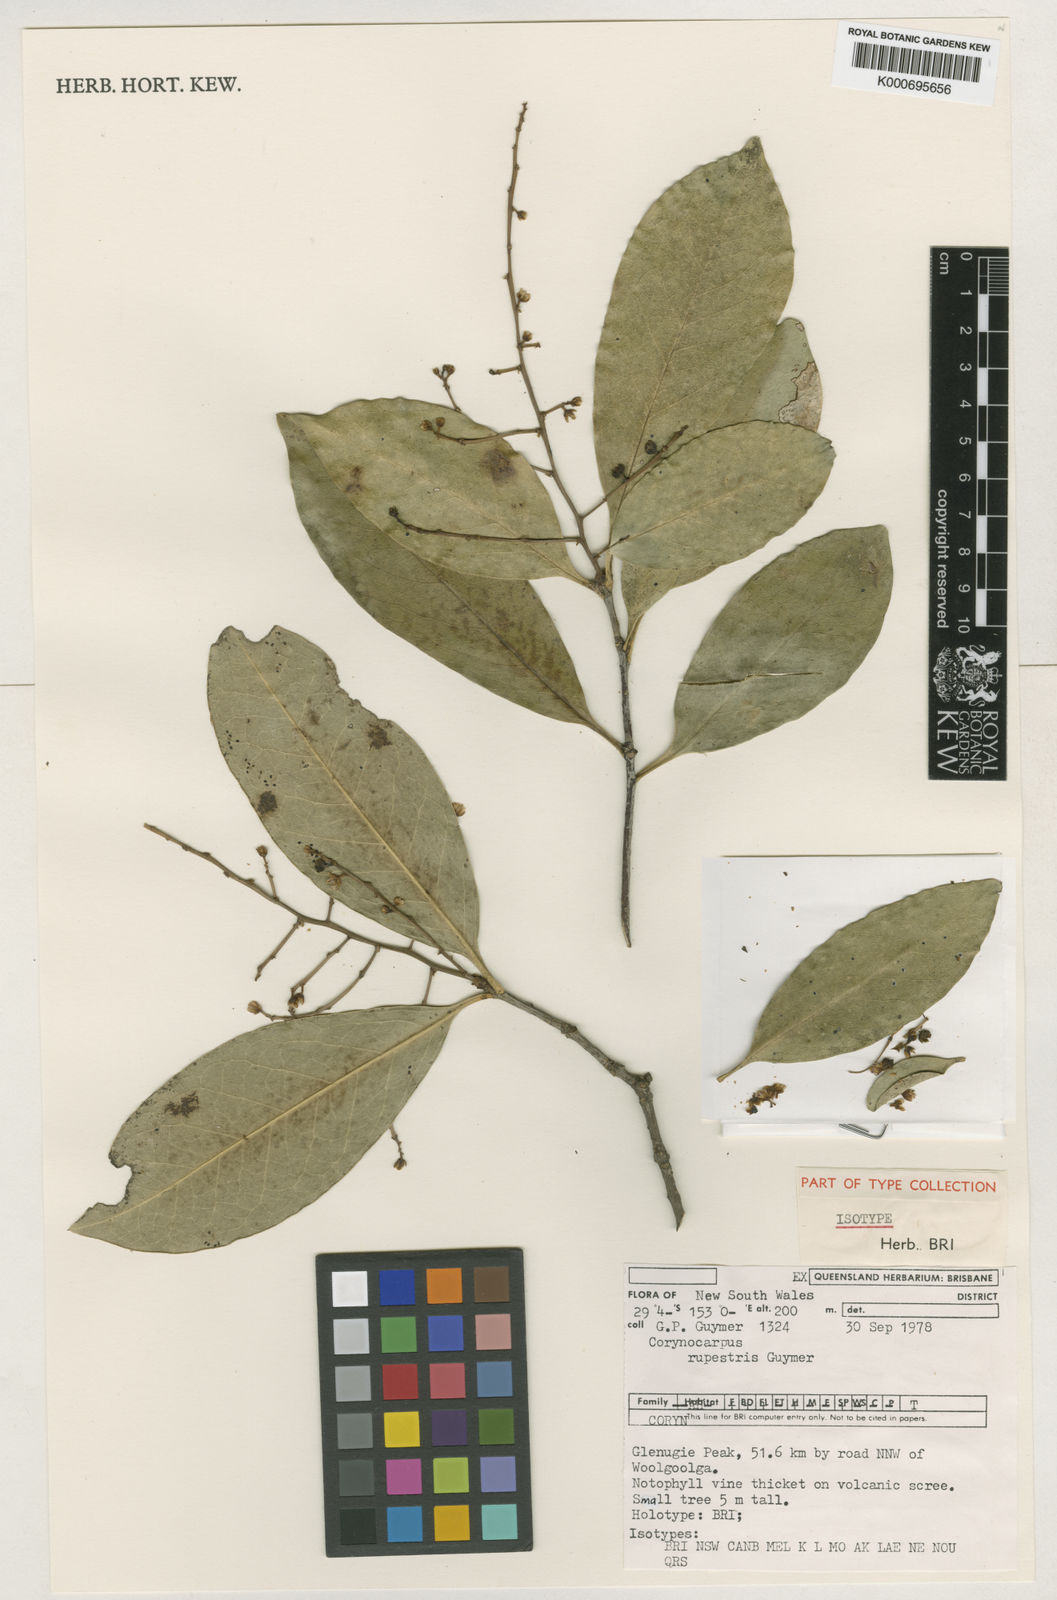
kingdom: Plantae
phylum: Tracheophyta
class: Magnoliopsida
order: Cucurbitales
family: Corynocarpaceae
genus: Corynocarpus
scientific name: Corynocarpus rupestris
